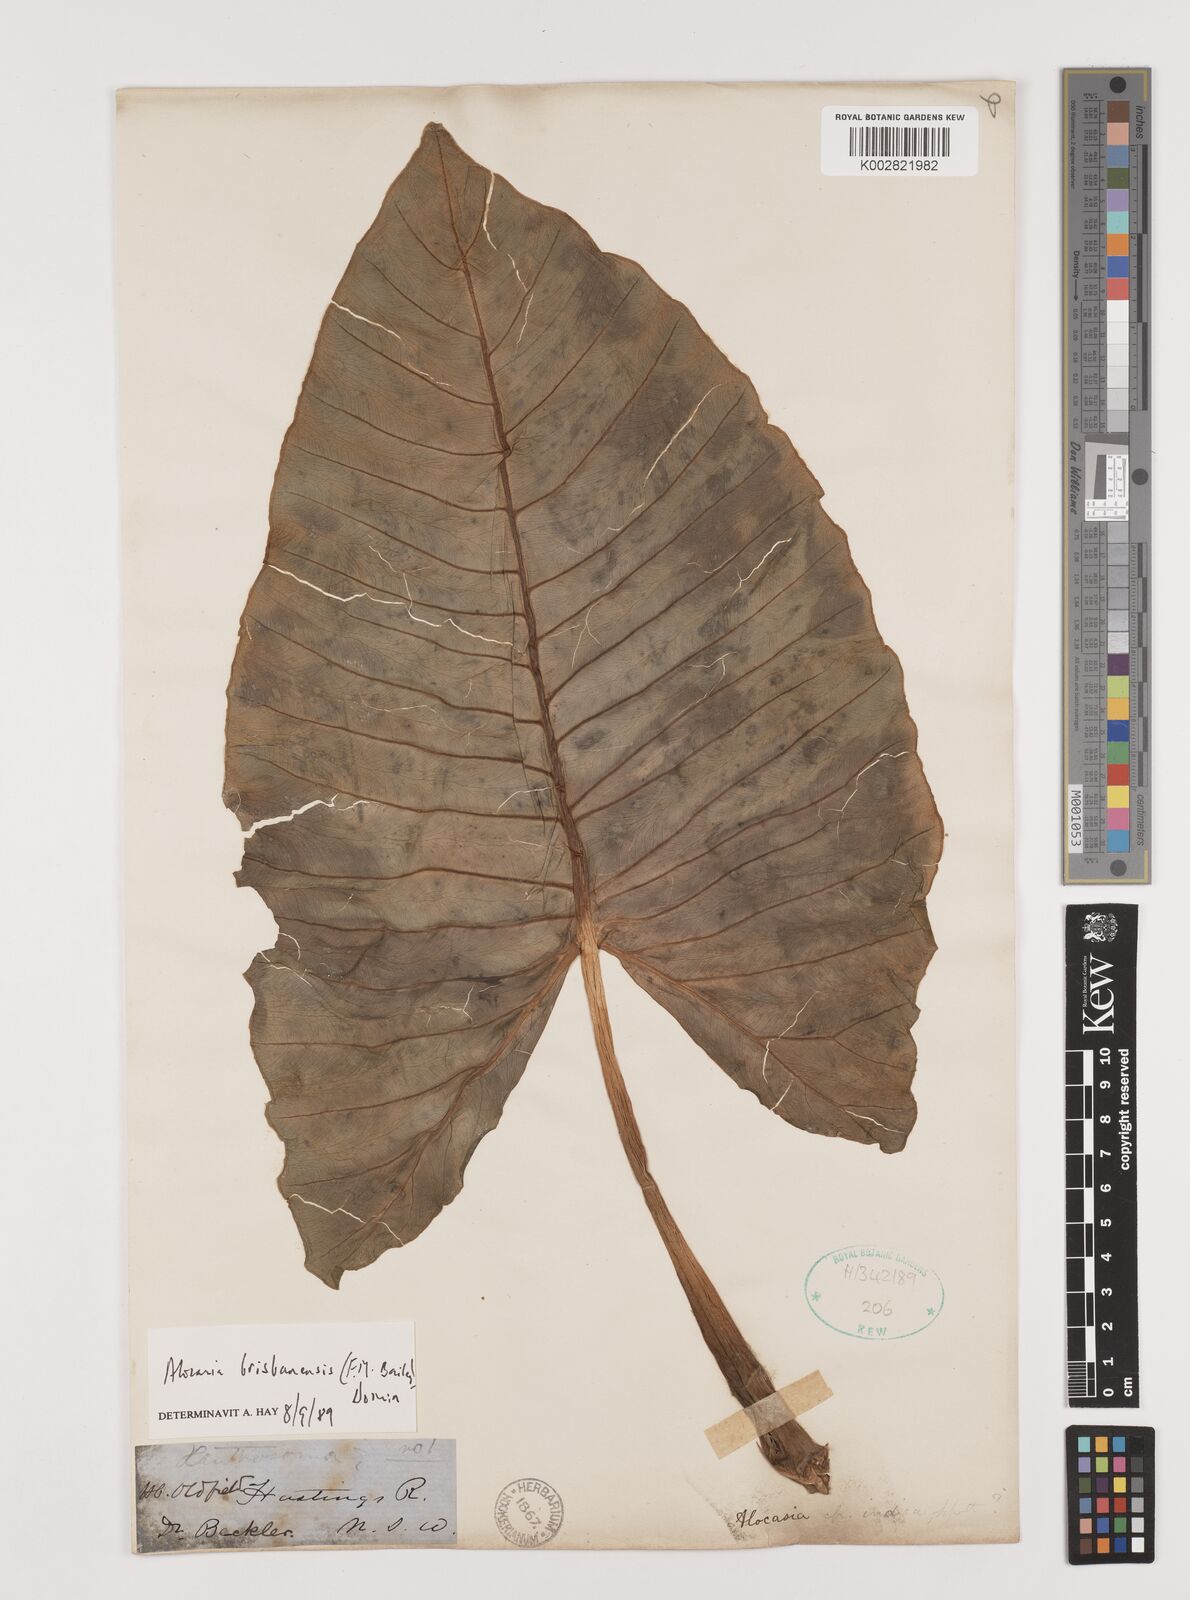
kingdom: Plantae
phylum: Tracheophyta
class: Liliopsida
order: Alismatales
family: Araceae
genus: Alocasia
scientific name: Alocasia brisbanensis
